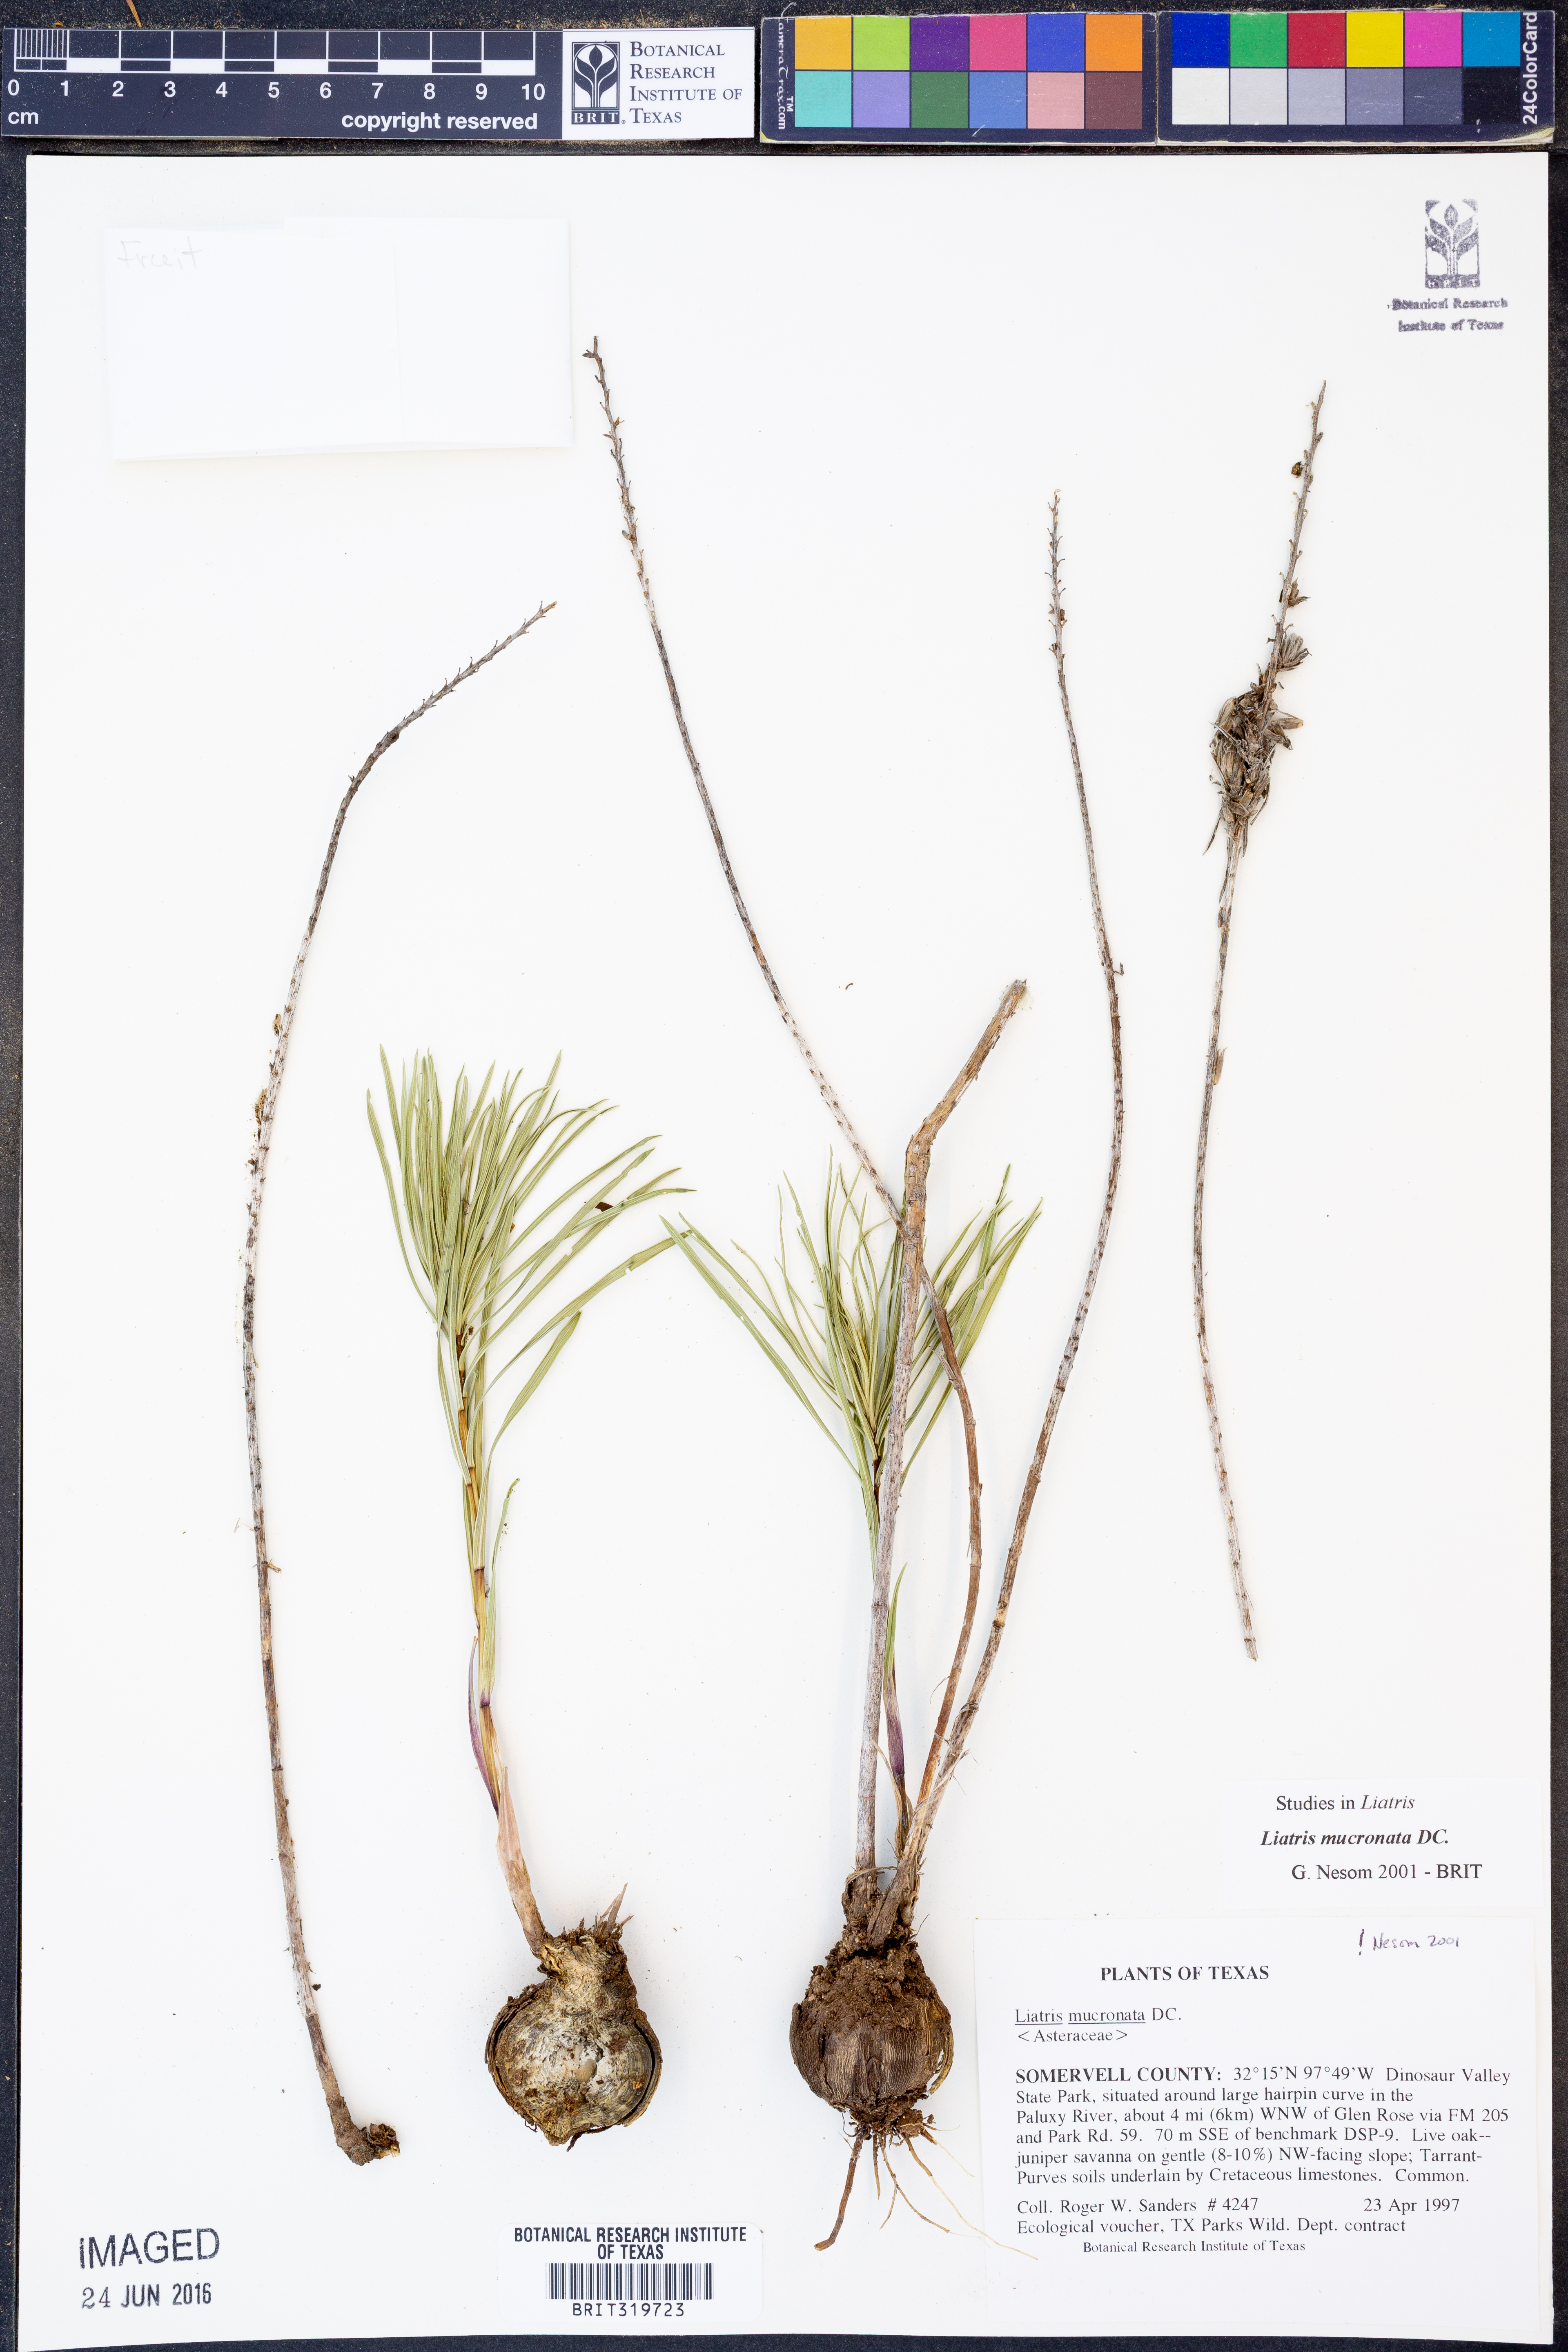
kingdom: Plantae
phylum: Tracheophyta
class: Magnoliopsida
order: Asterales
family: Asteraceae
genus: Liatris
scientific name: Liatris mucronata
